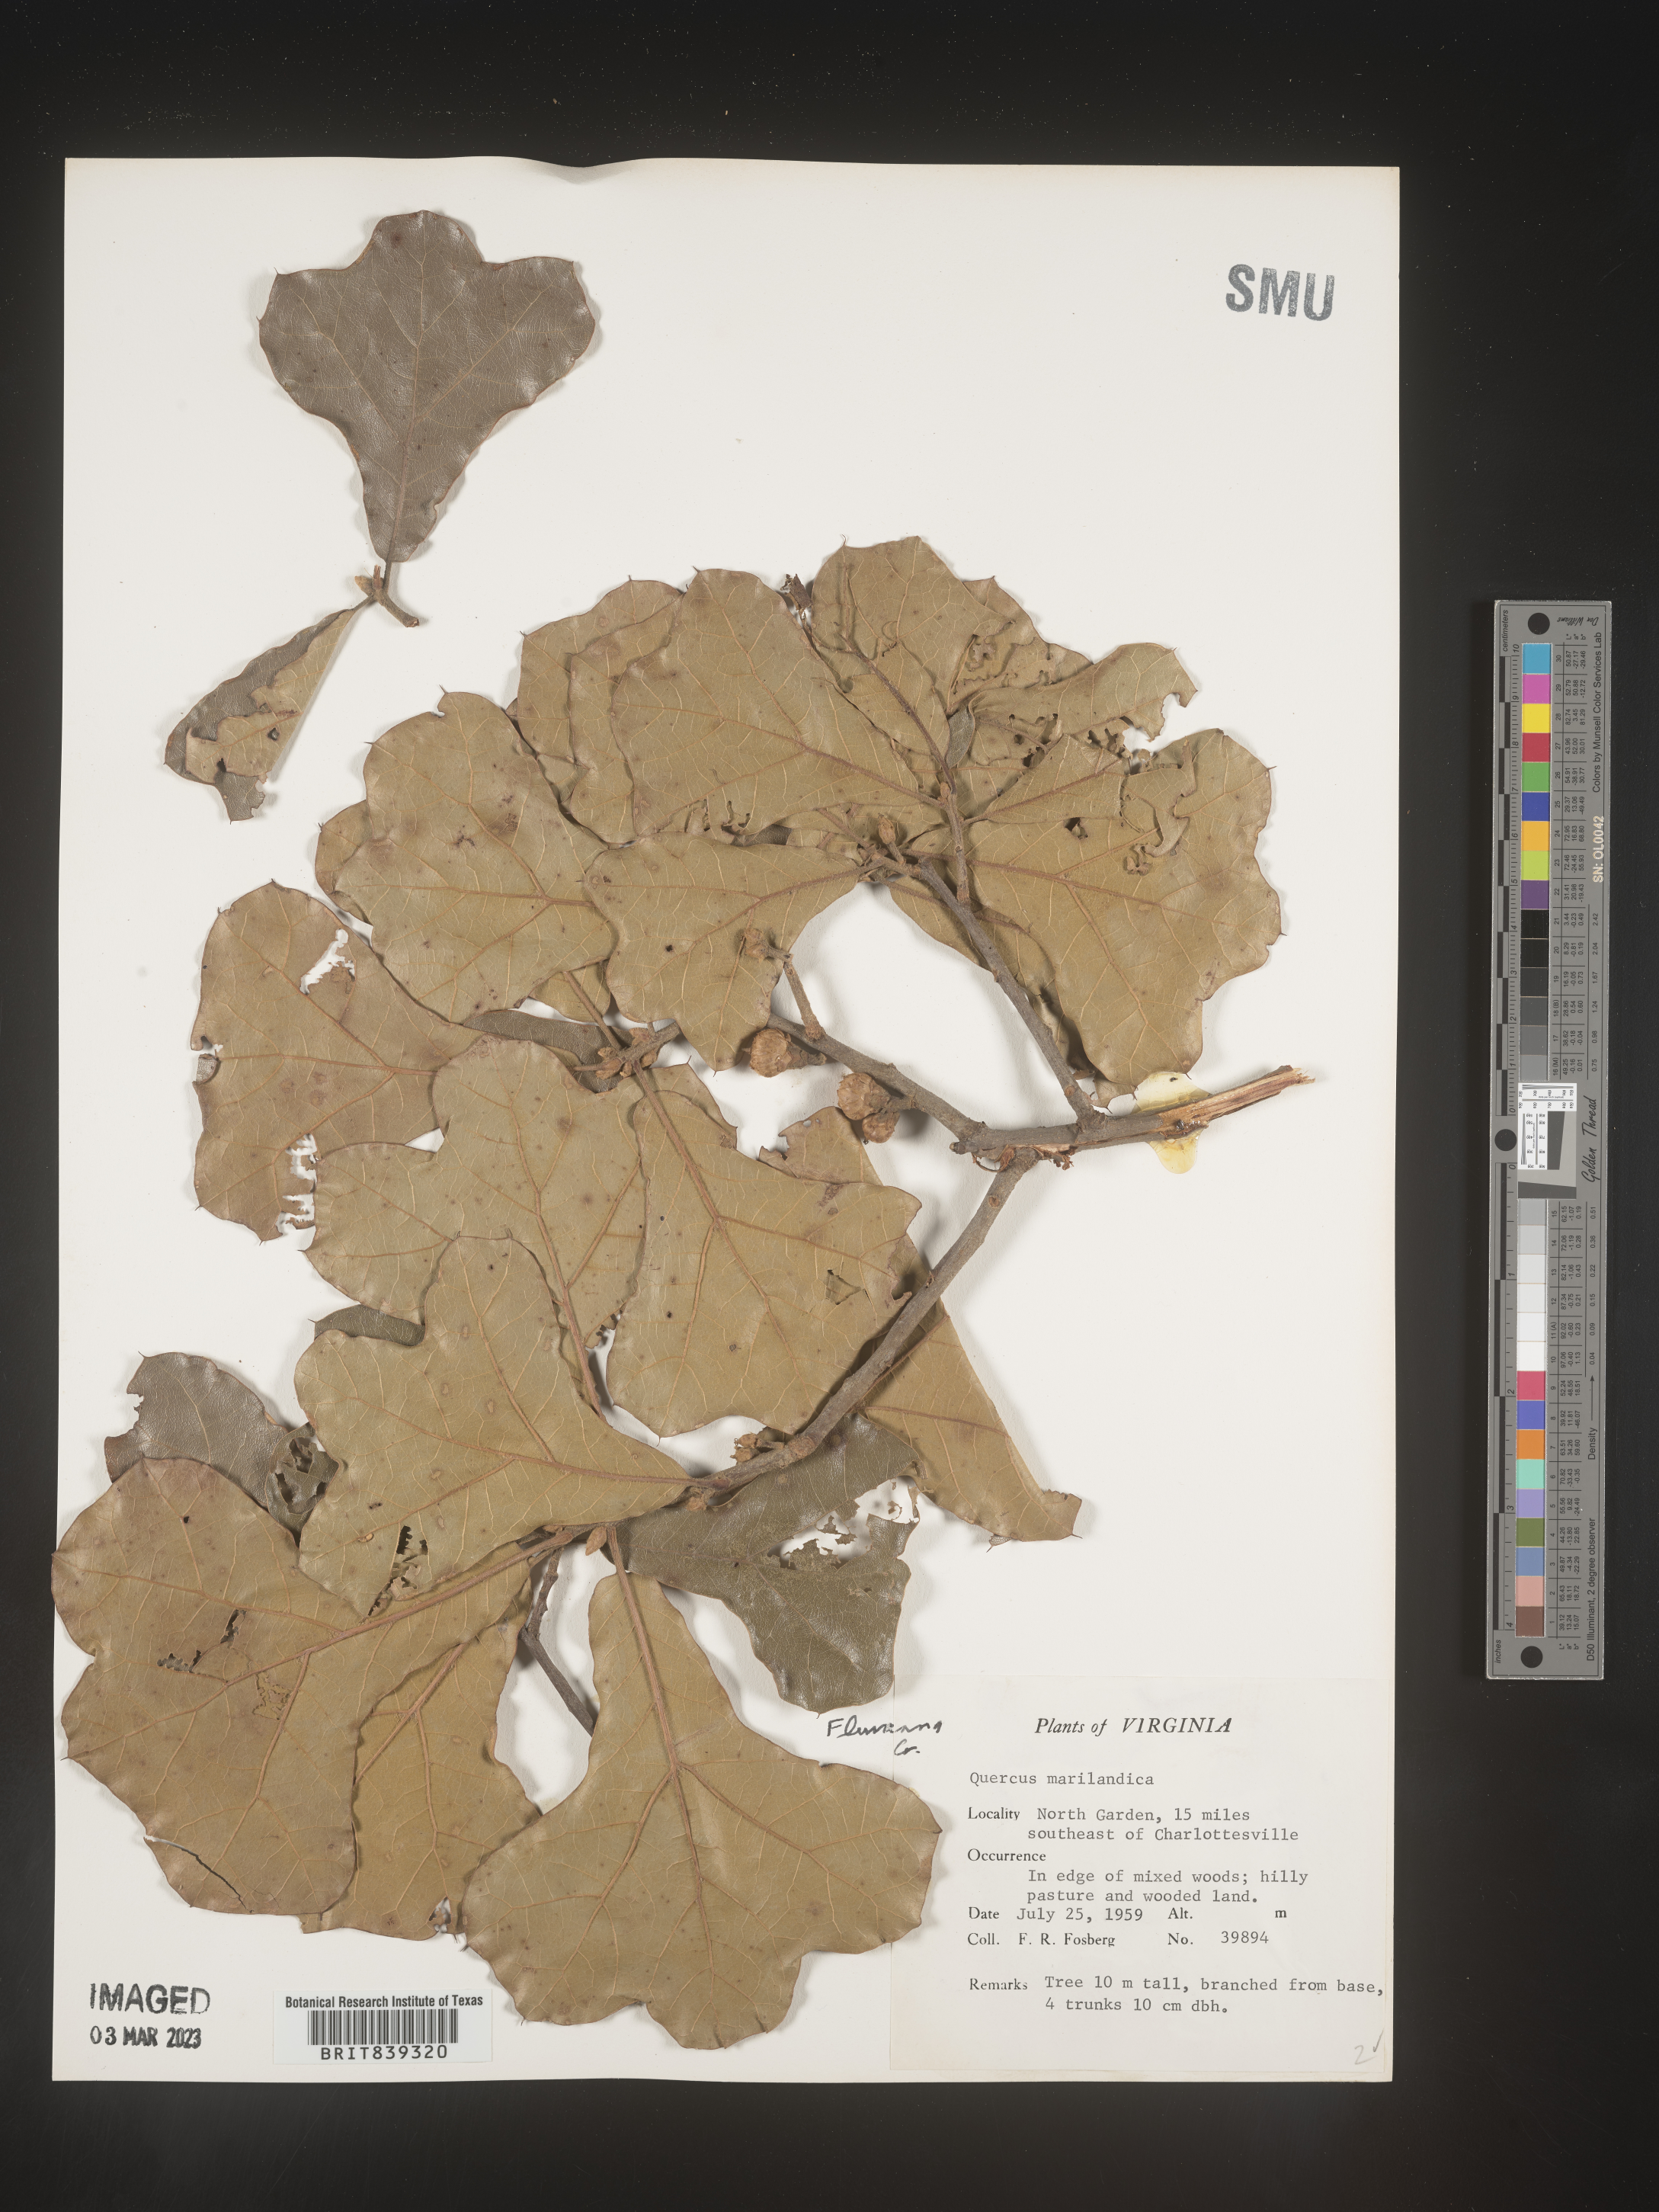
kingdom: Plantae
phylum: Tracheophyta
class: Magnoliopsida
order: Fagales
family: Fagaceae
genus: Quercus
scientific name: Quercus marilandica
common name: Blackjack oak
